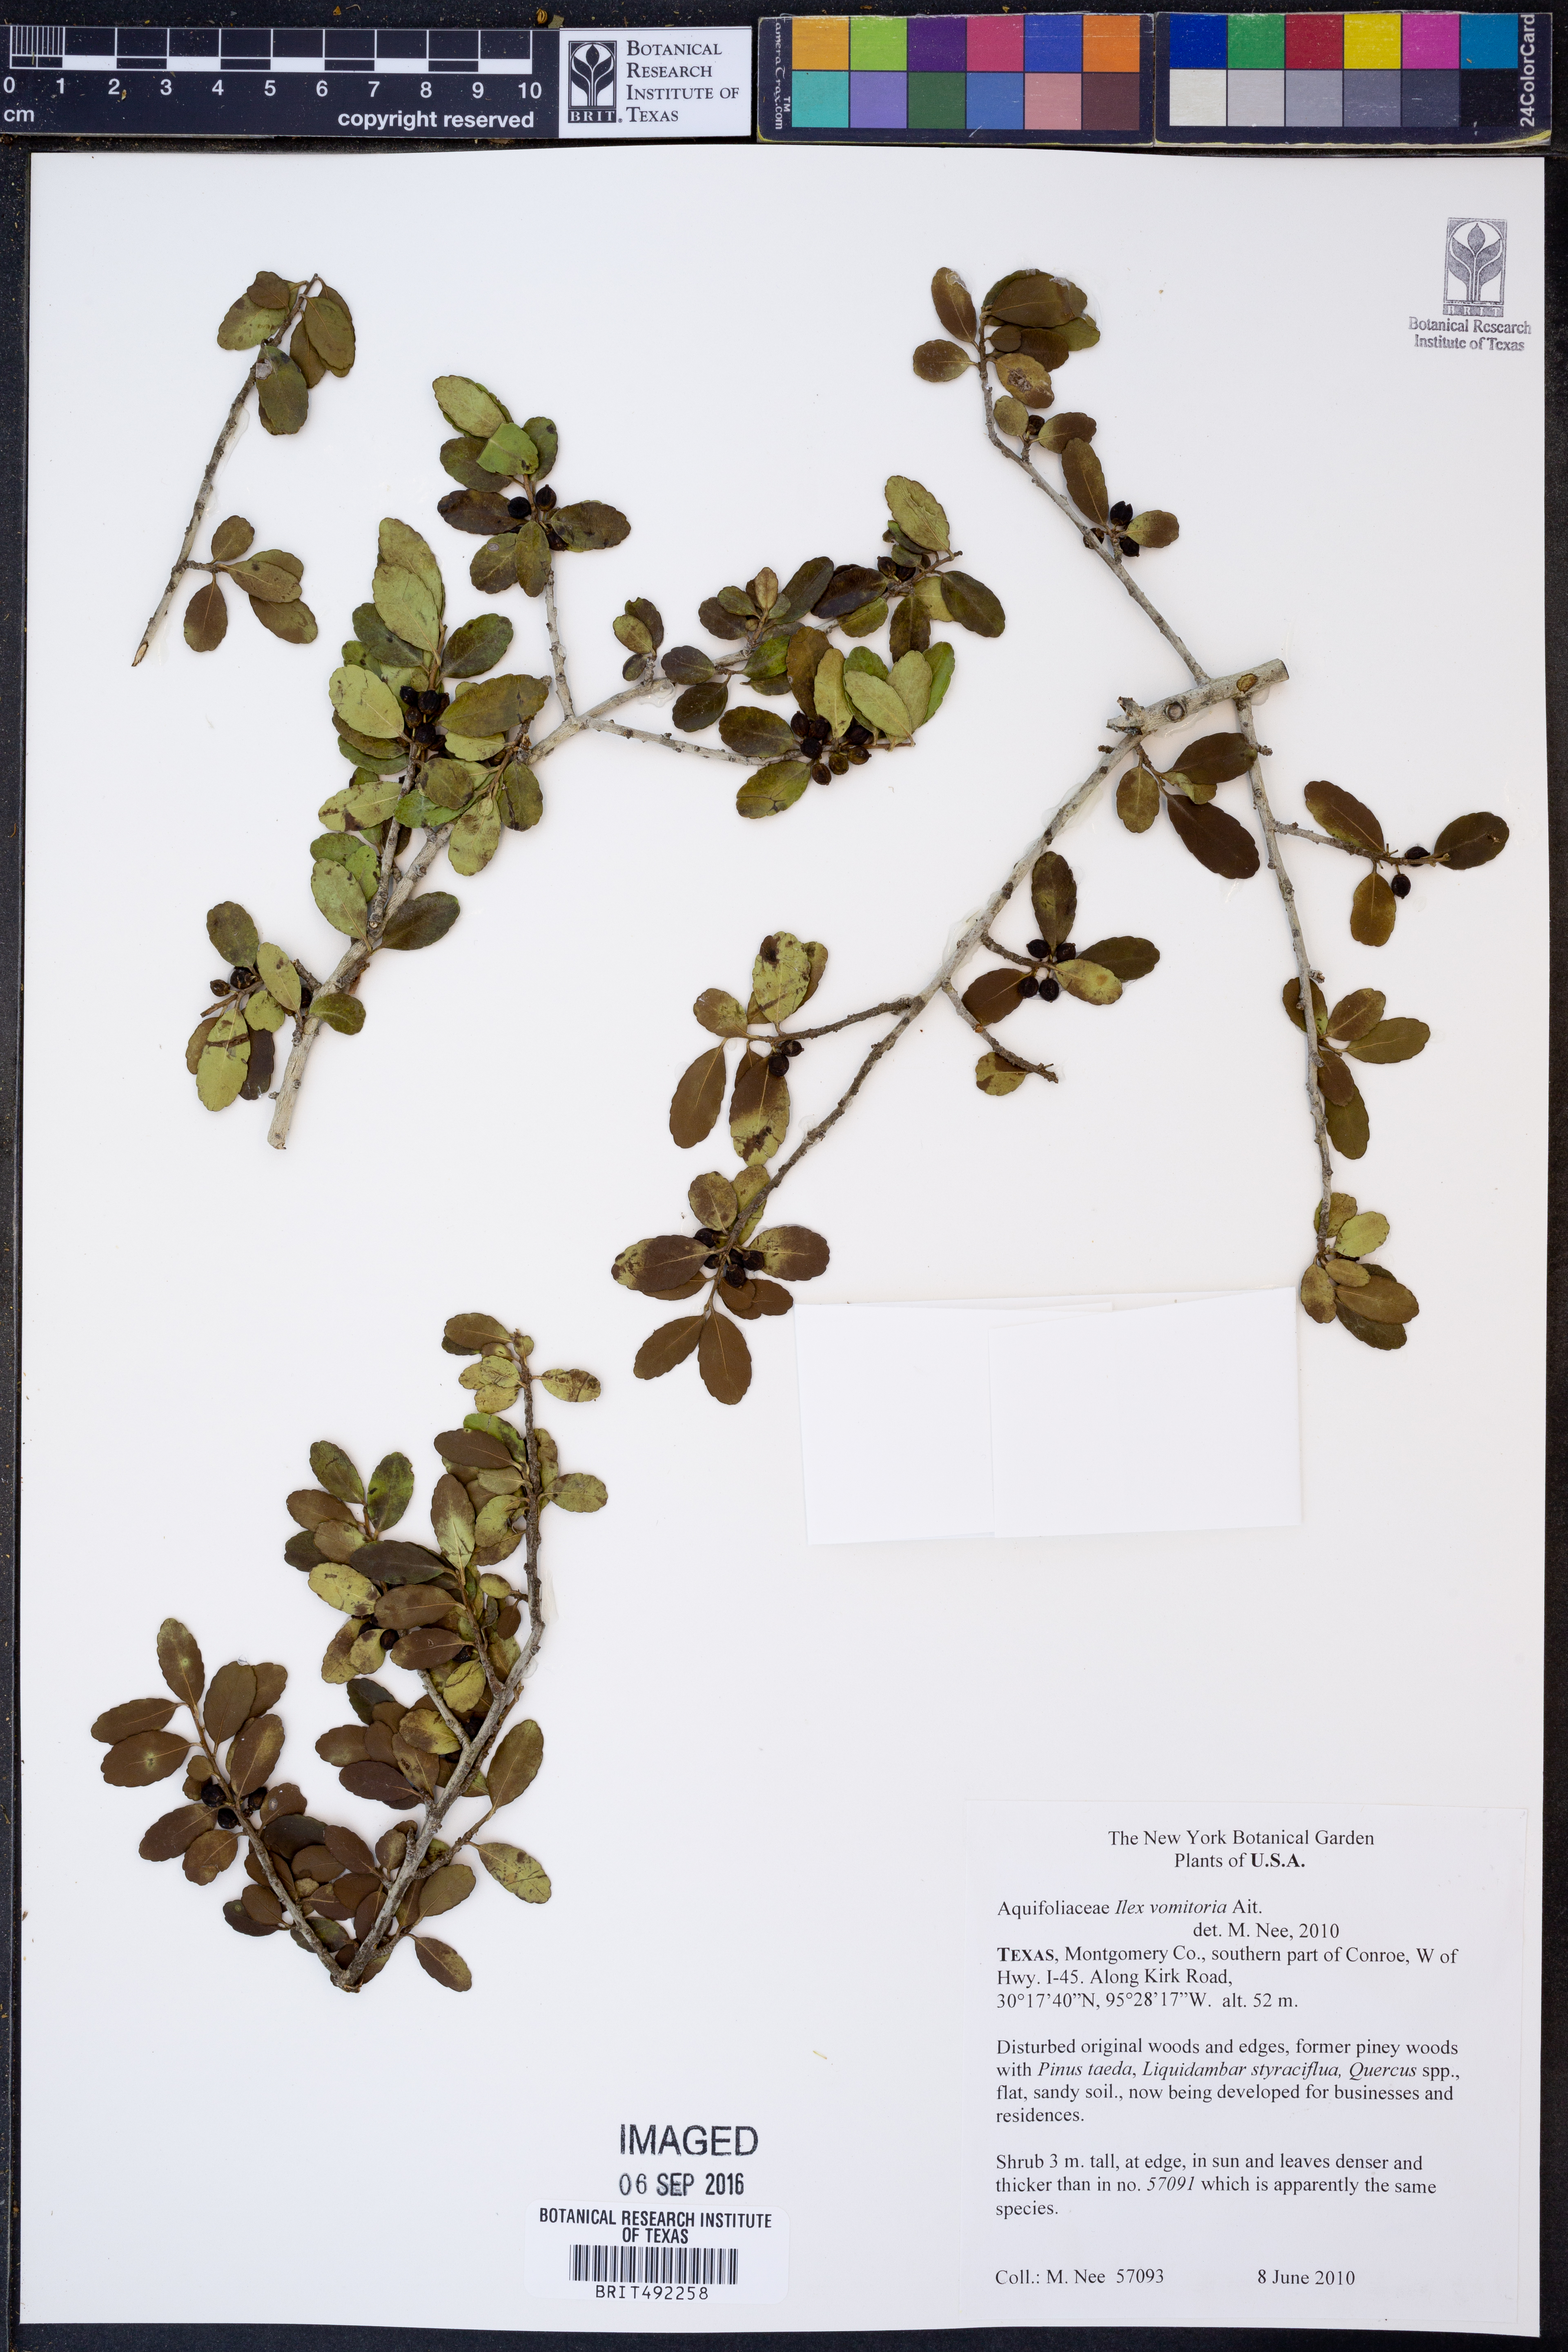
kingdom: Plantae
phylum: Tracheophyta
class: Magnoliopsida
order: Aquifoliales
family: Aquifoliaceae
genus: Ilex
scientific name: Ilex vomitoria
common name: Yaupon holly
